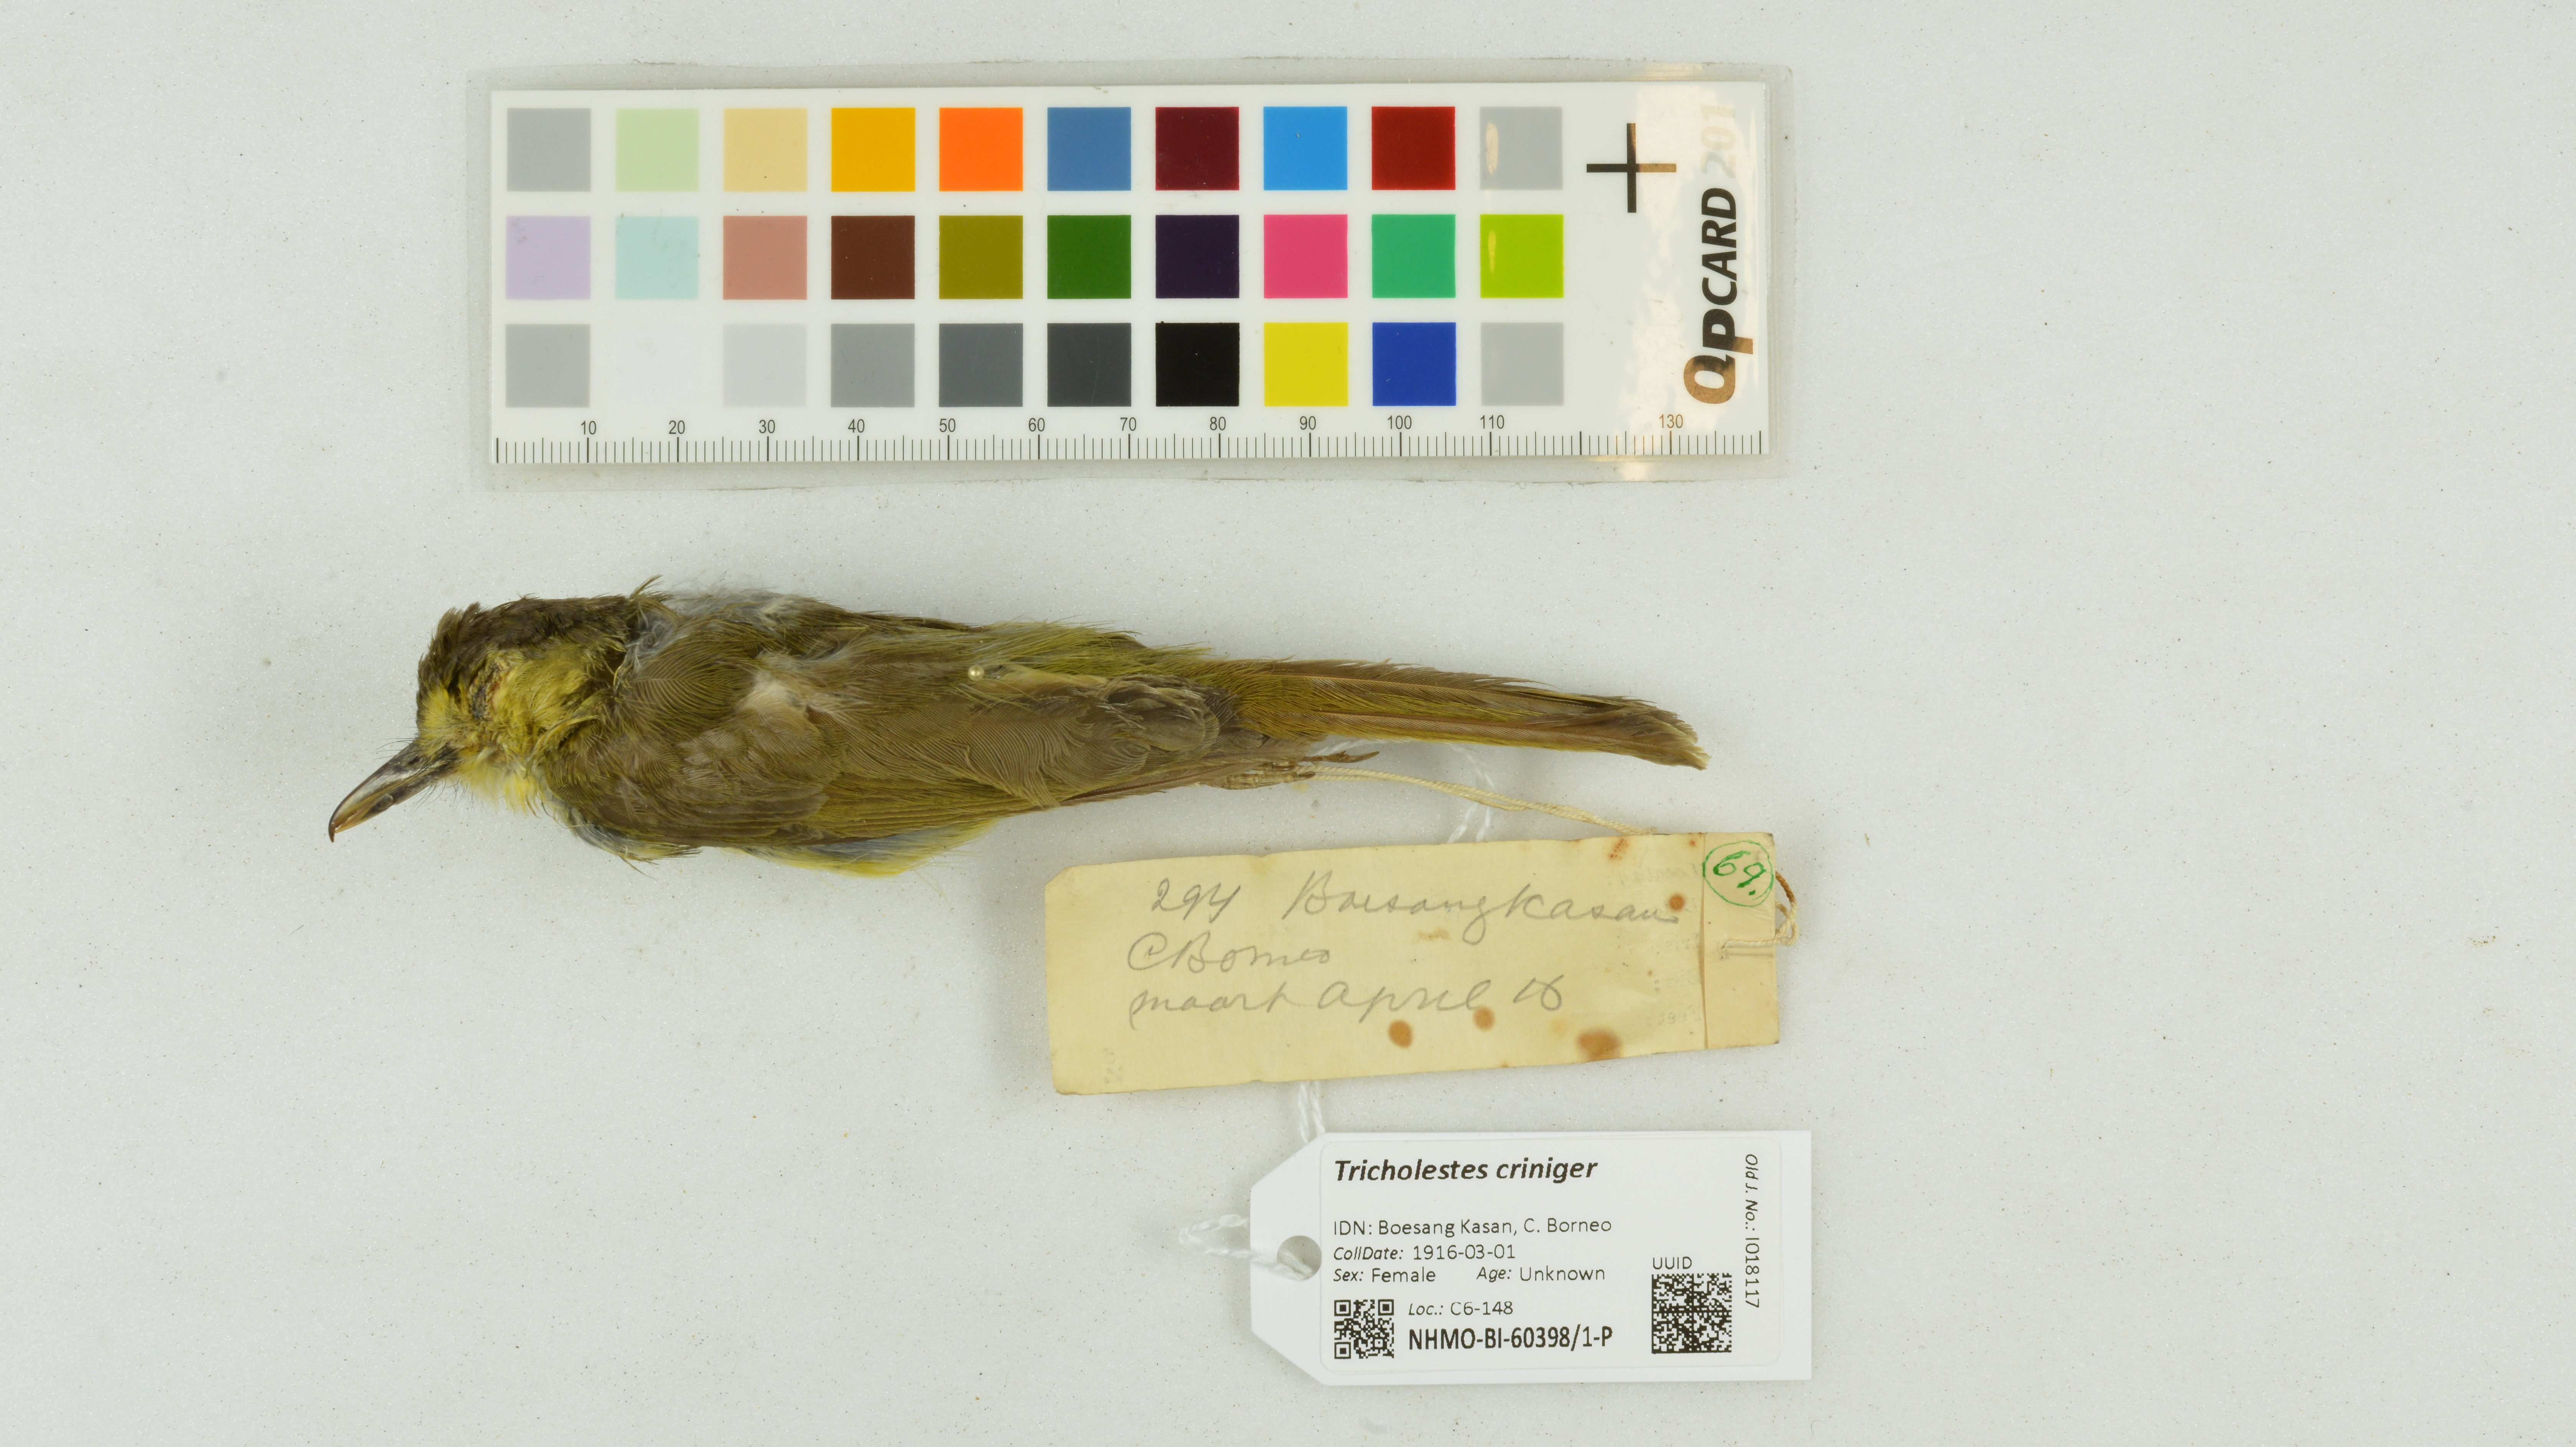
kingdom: Animalia
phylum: Chordata
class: Aves
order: Passeriformes
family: Pycnonotidae
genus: Tricholestes
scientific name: Tricholestes criniger
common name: Hairy-backed bulbul
